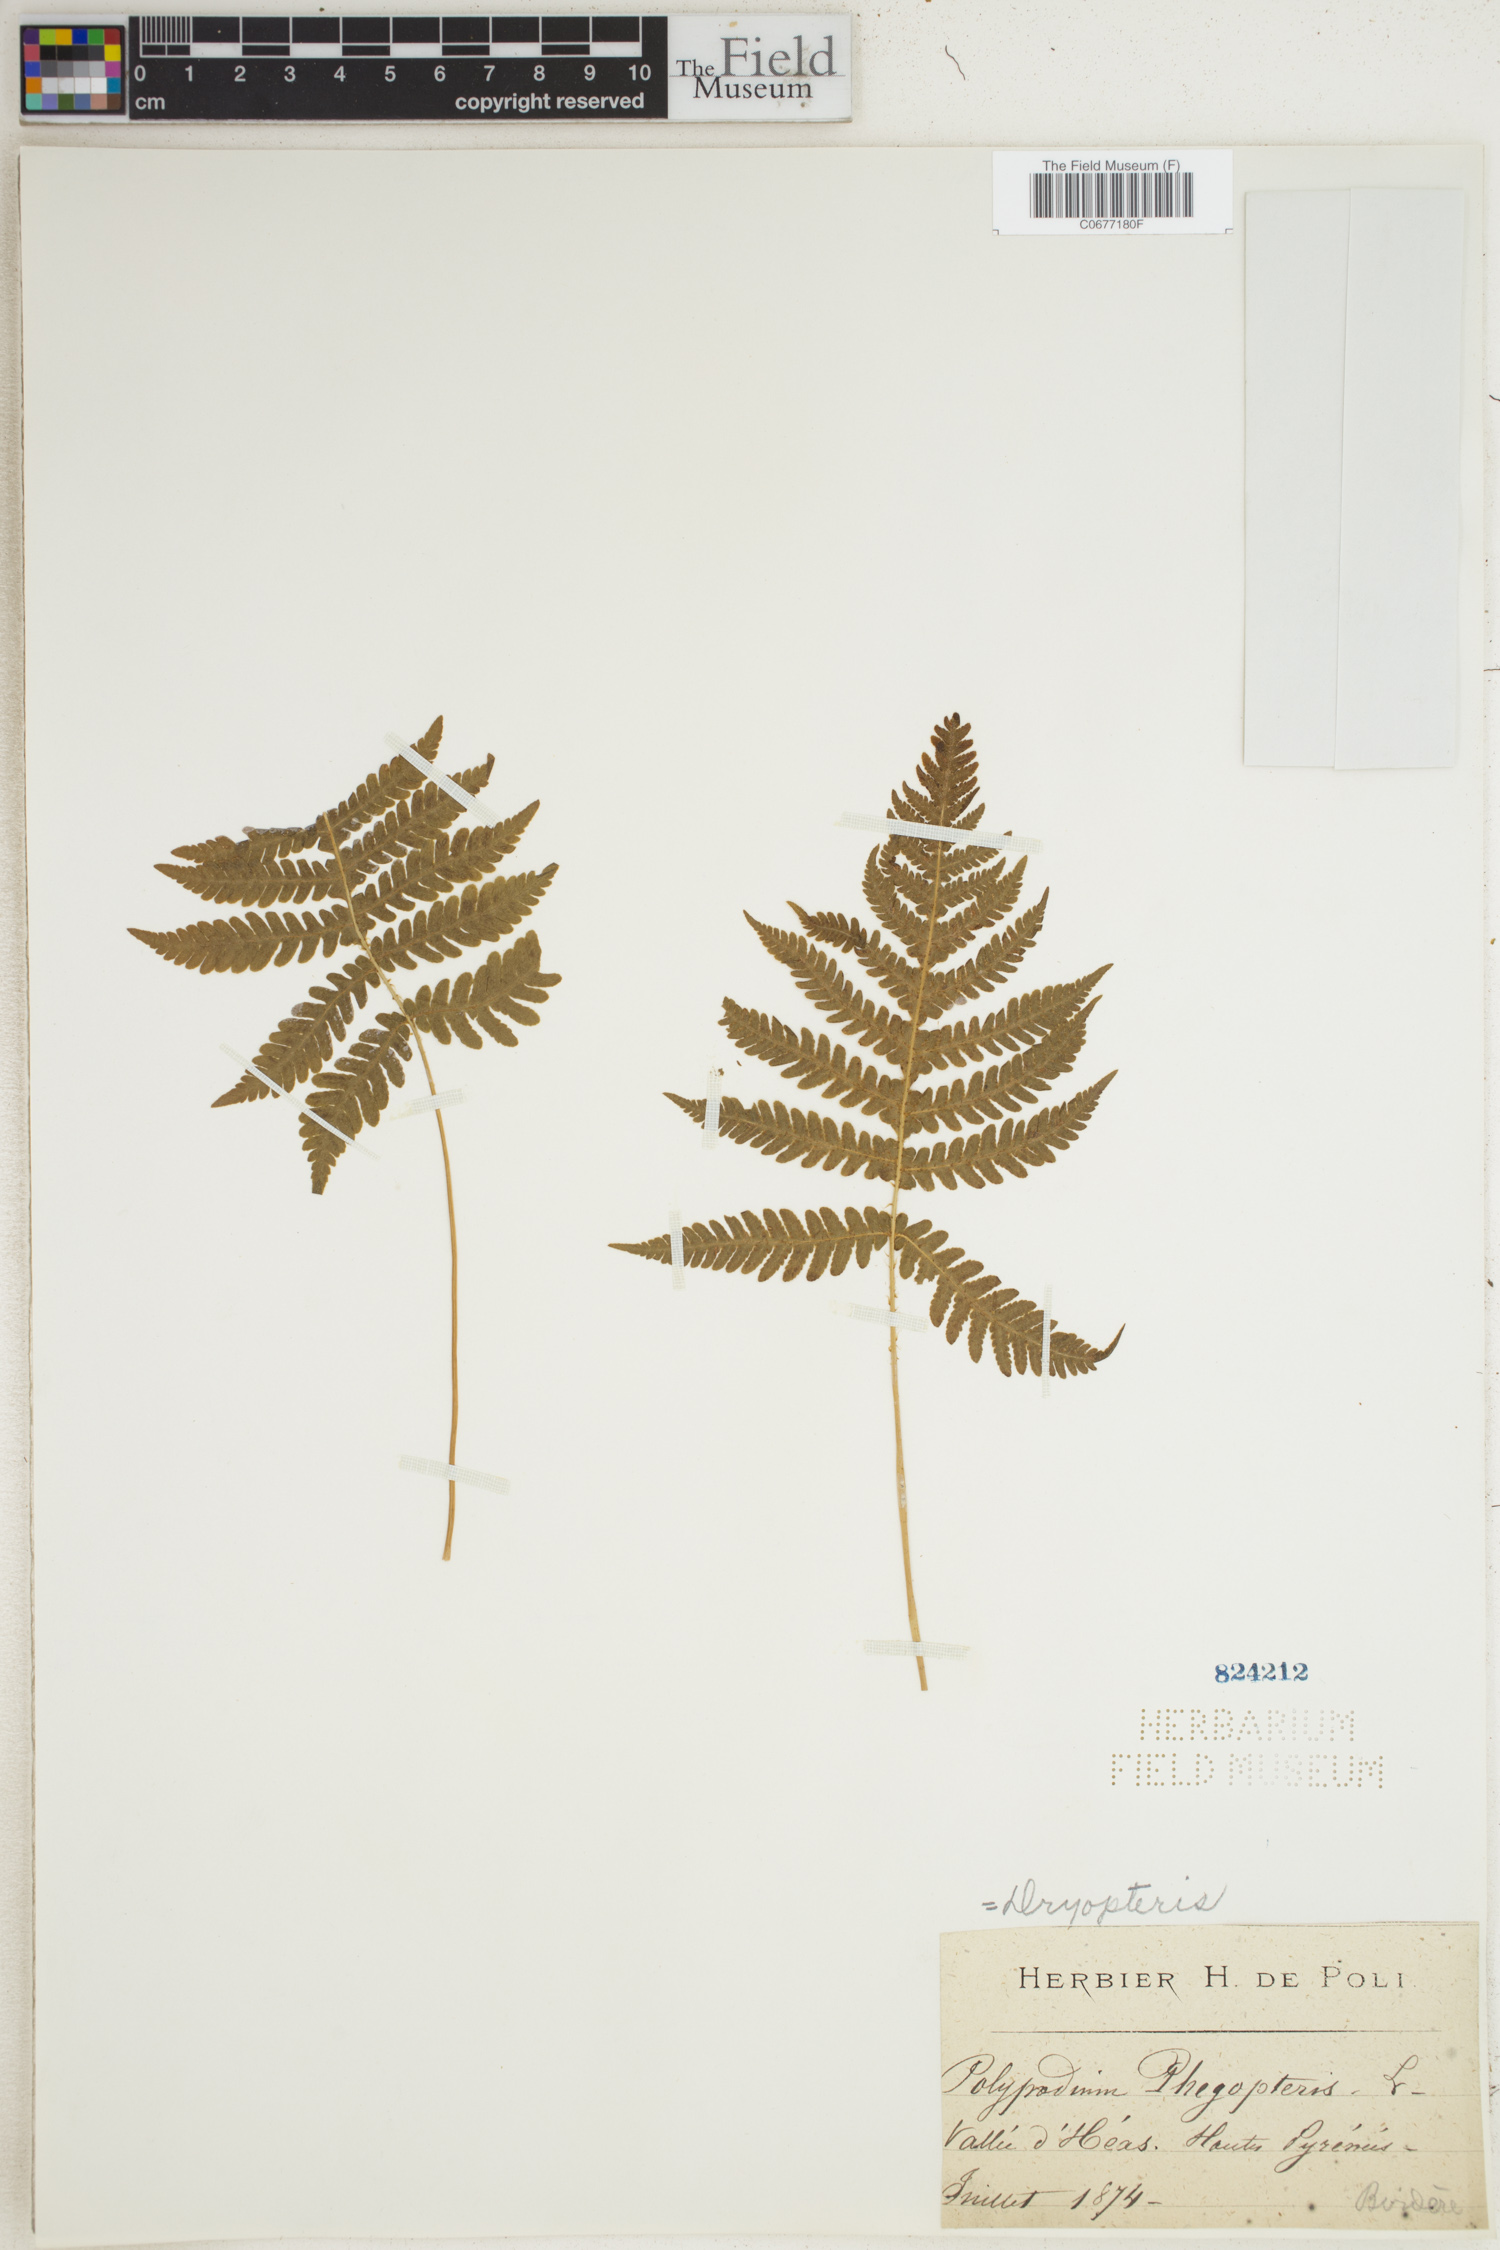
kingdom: Plantae
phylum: Tracheophyta
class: Polypodiopsida
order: Polypodiales
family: Thelypteridaceae
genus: Phegopteris
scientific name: Phegopteris connectilis
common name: Beech fern
